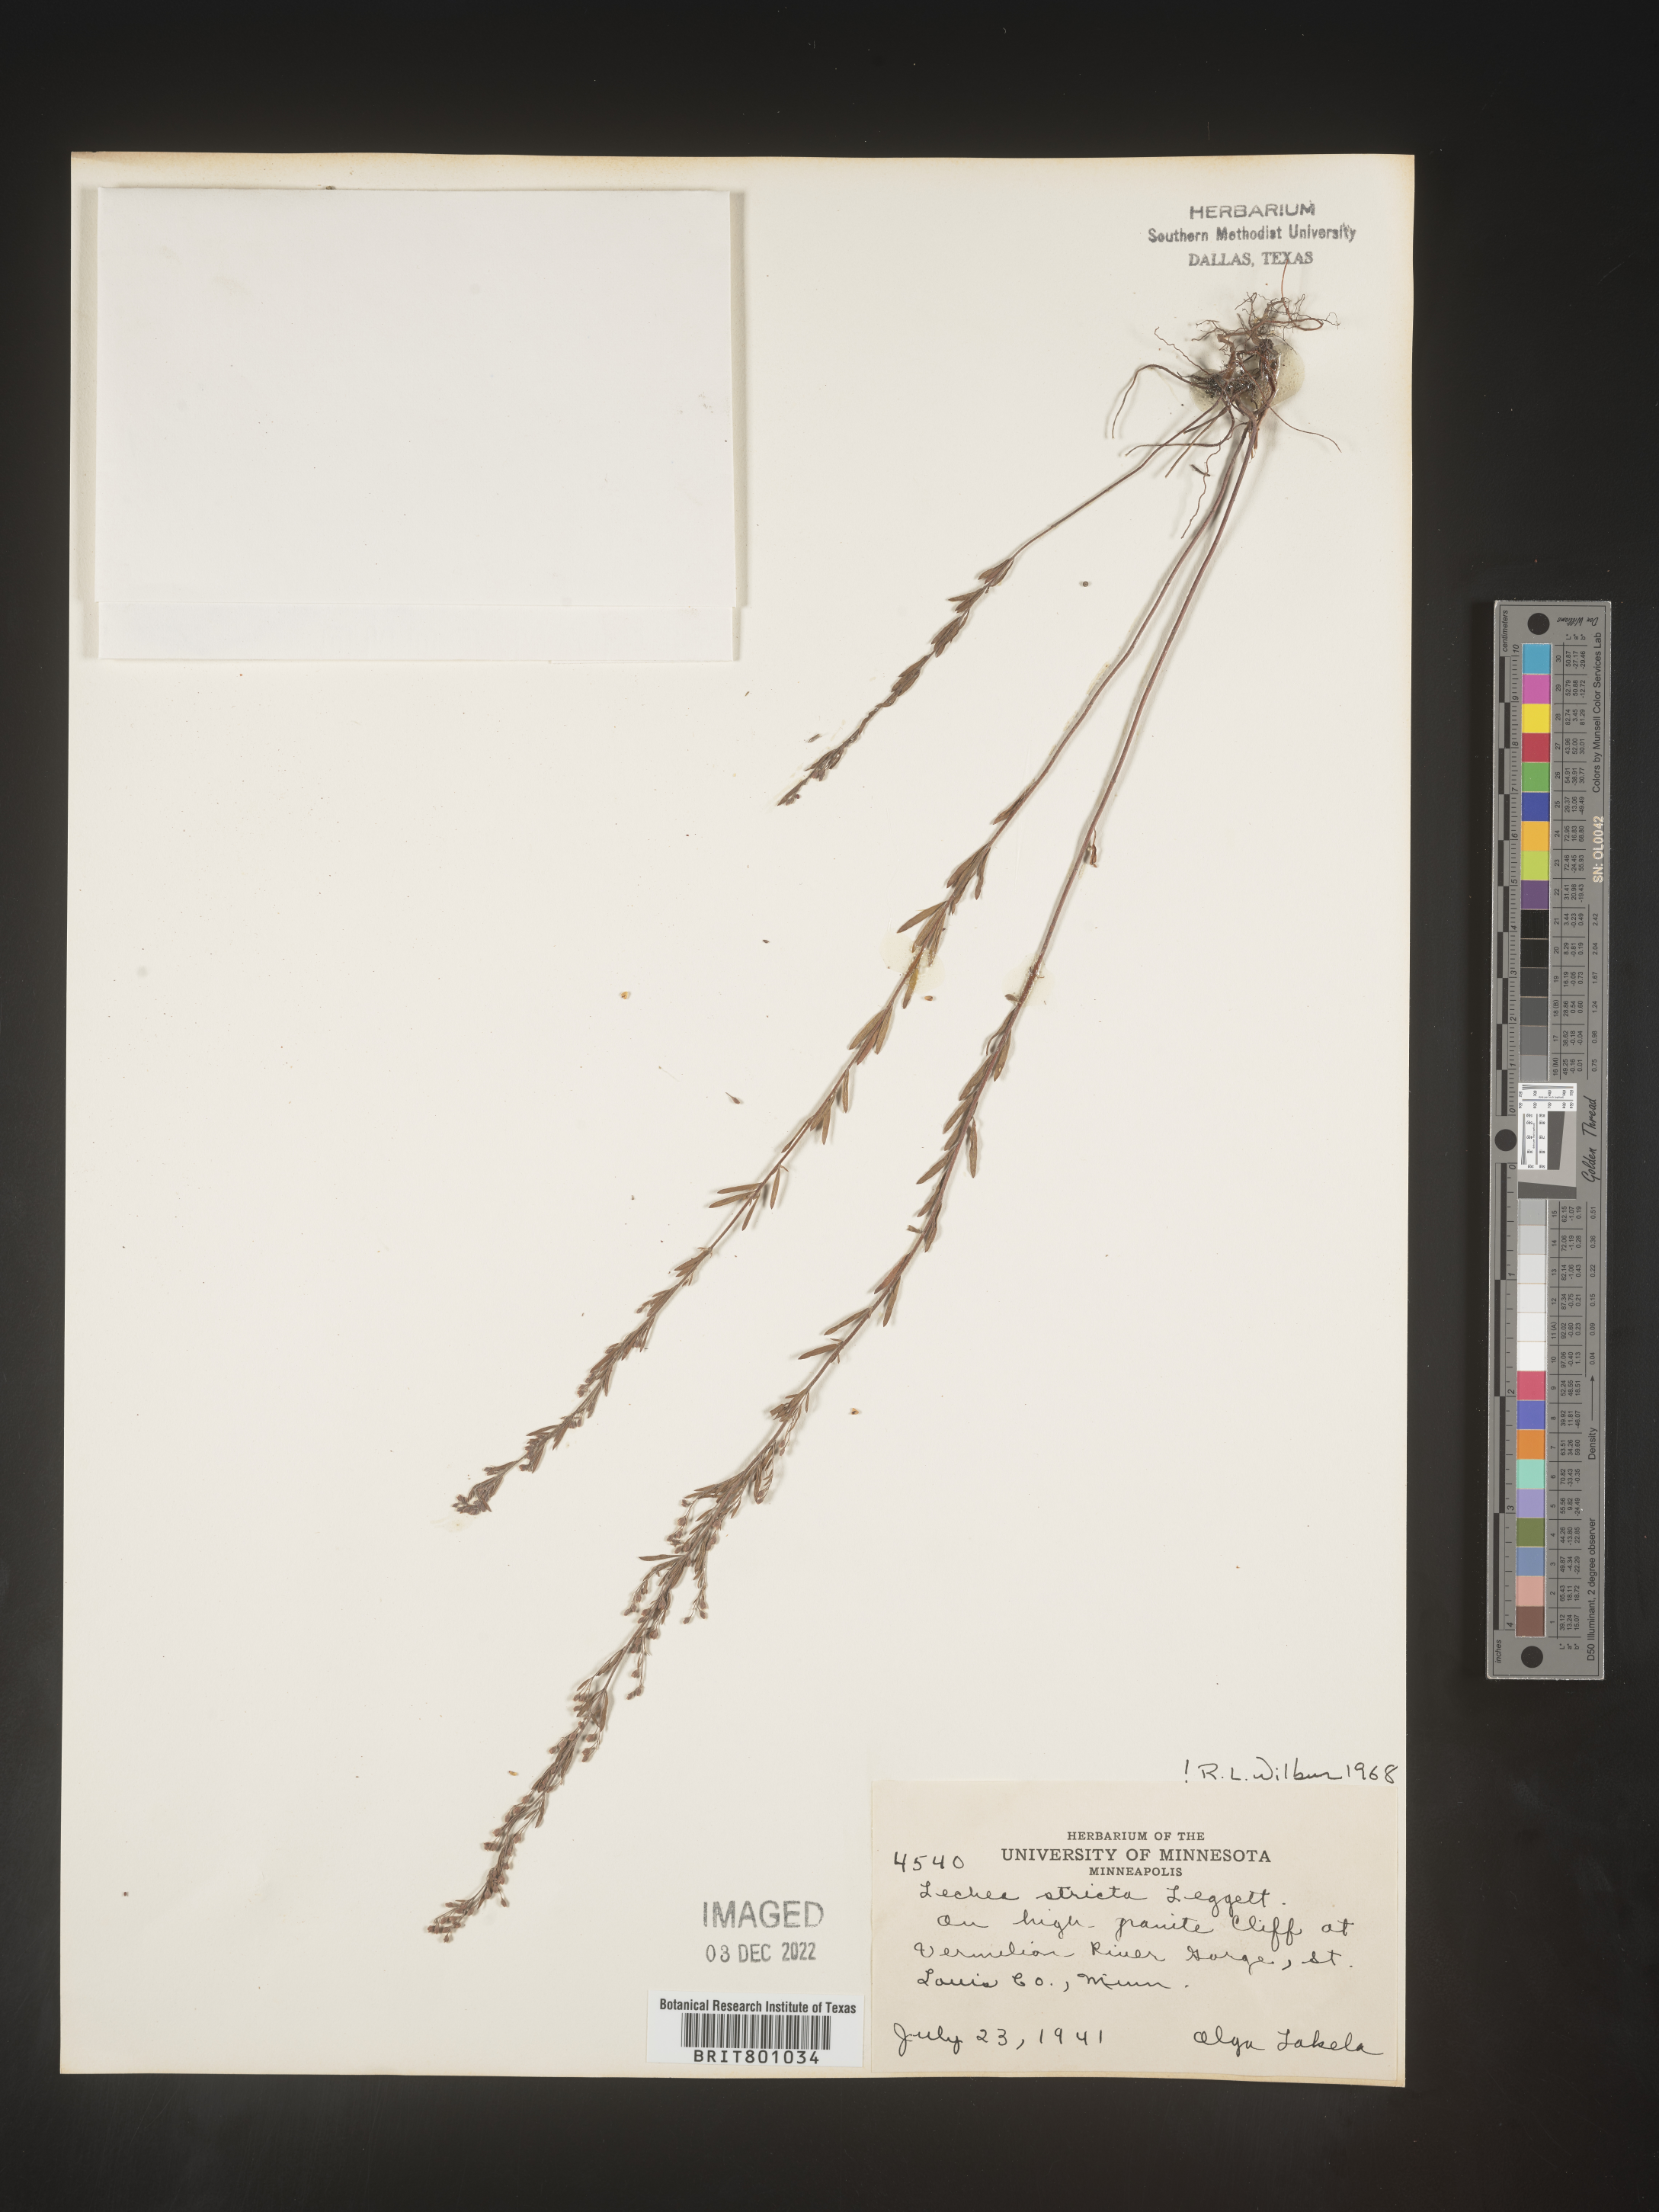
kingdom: Plantae
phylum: Tracheophyta
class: Magnoliopsida
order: Malvales
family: Cistaceae
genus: Lechea
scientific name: Lechea
